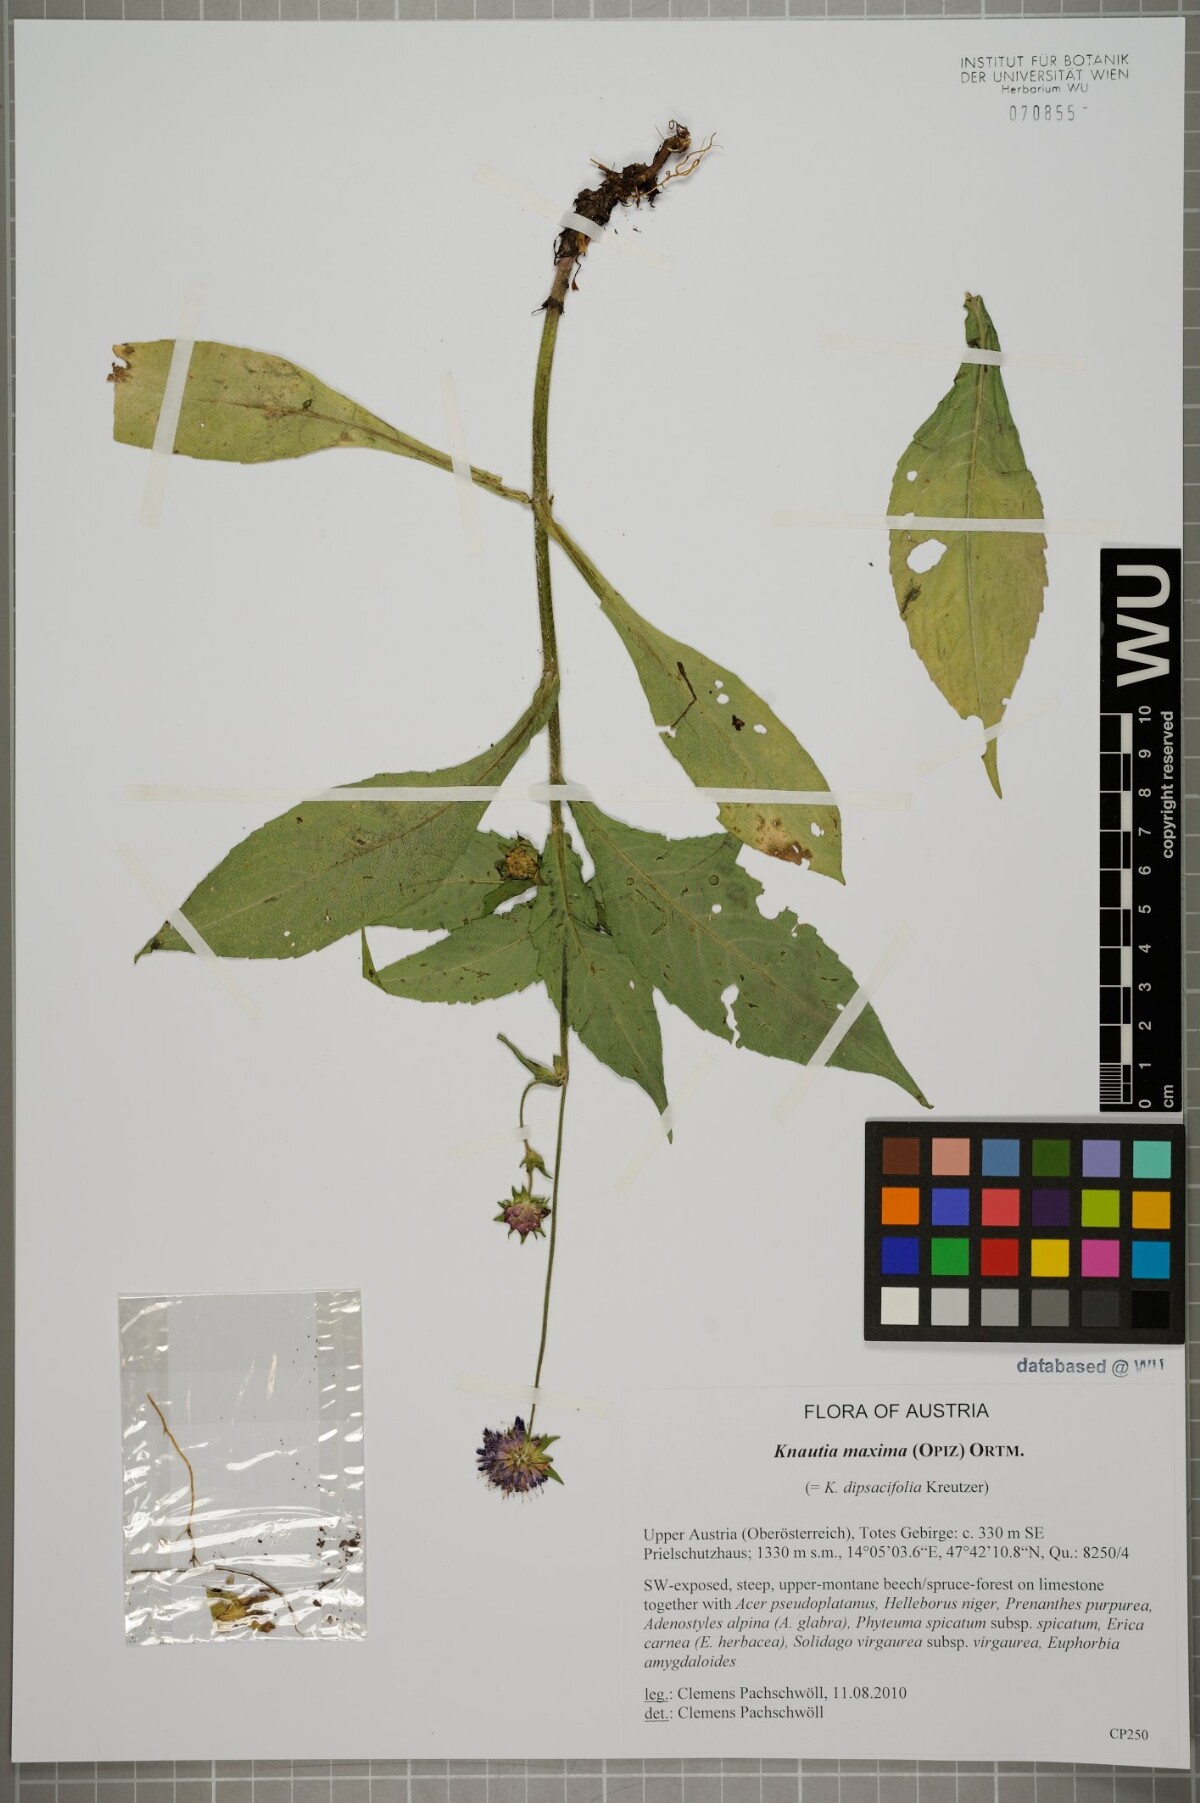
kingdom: Plantae
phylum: Tracheophyta
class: Magnoliopsida
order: Dipsacales
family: Caprifoliaceae
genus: Knautia
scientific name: Knautia dipsacifolia
